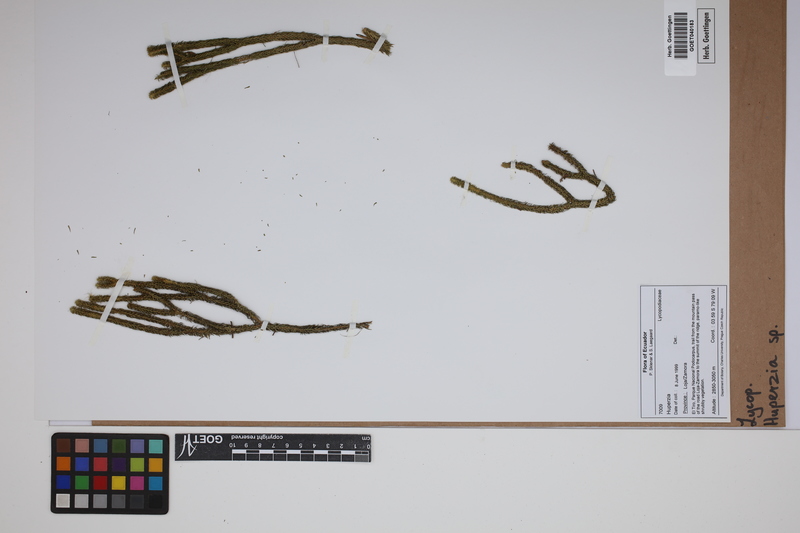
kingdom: Plantae
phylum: Tracheophyta
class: Lycopodiopsida
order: Lycopodiales
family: Lycopodiaceae
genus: Phlegmariurus
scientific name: Phlegmariurus
